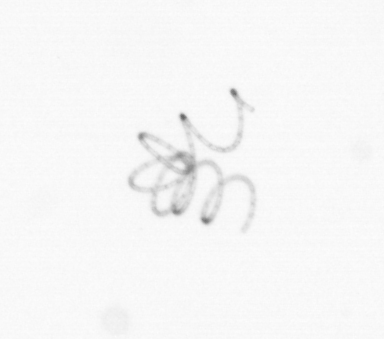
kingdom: Chromista
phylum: Ochrophyta
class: Bacillariophyceae
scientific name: Bacillariophyceae
